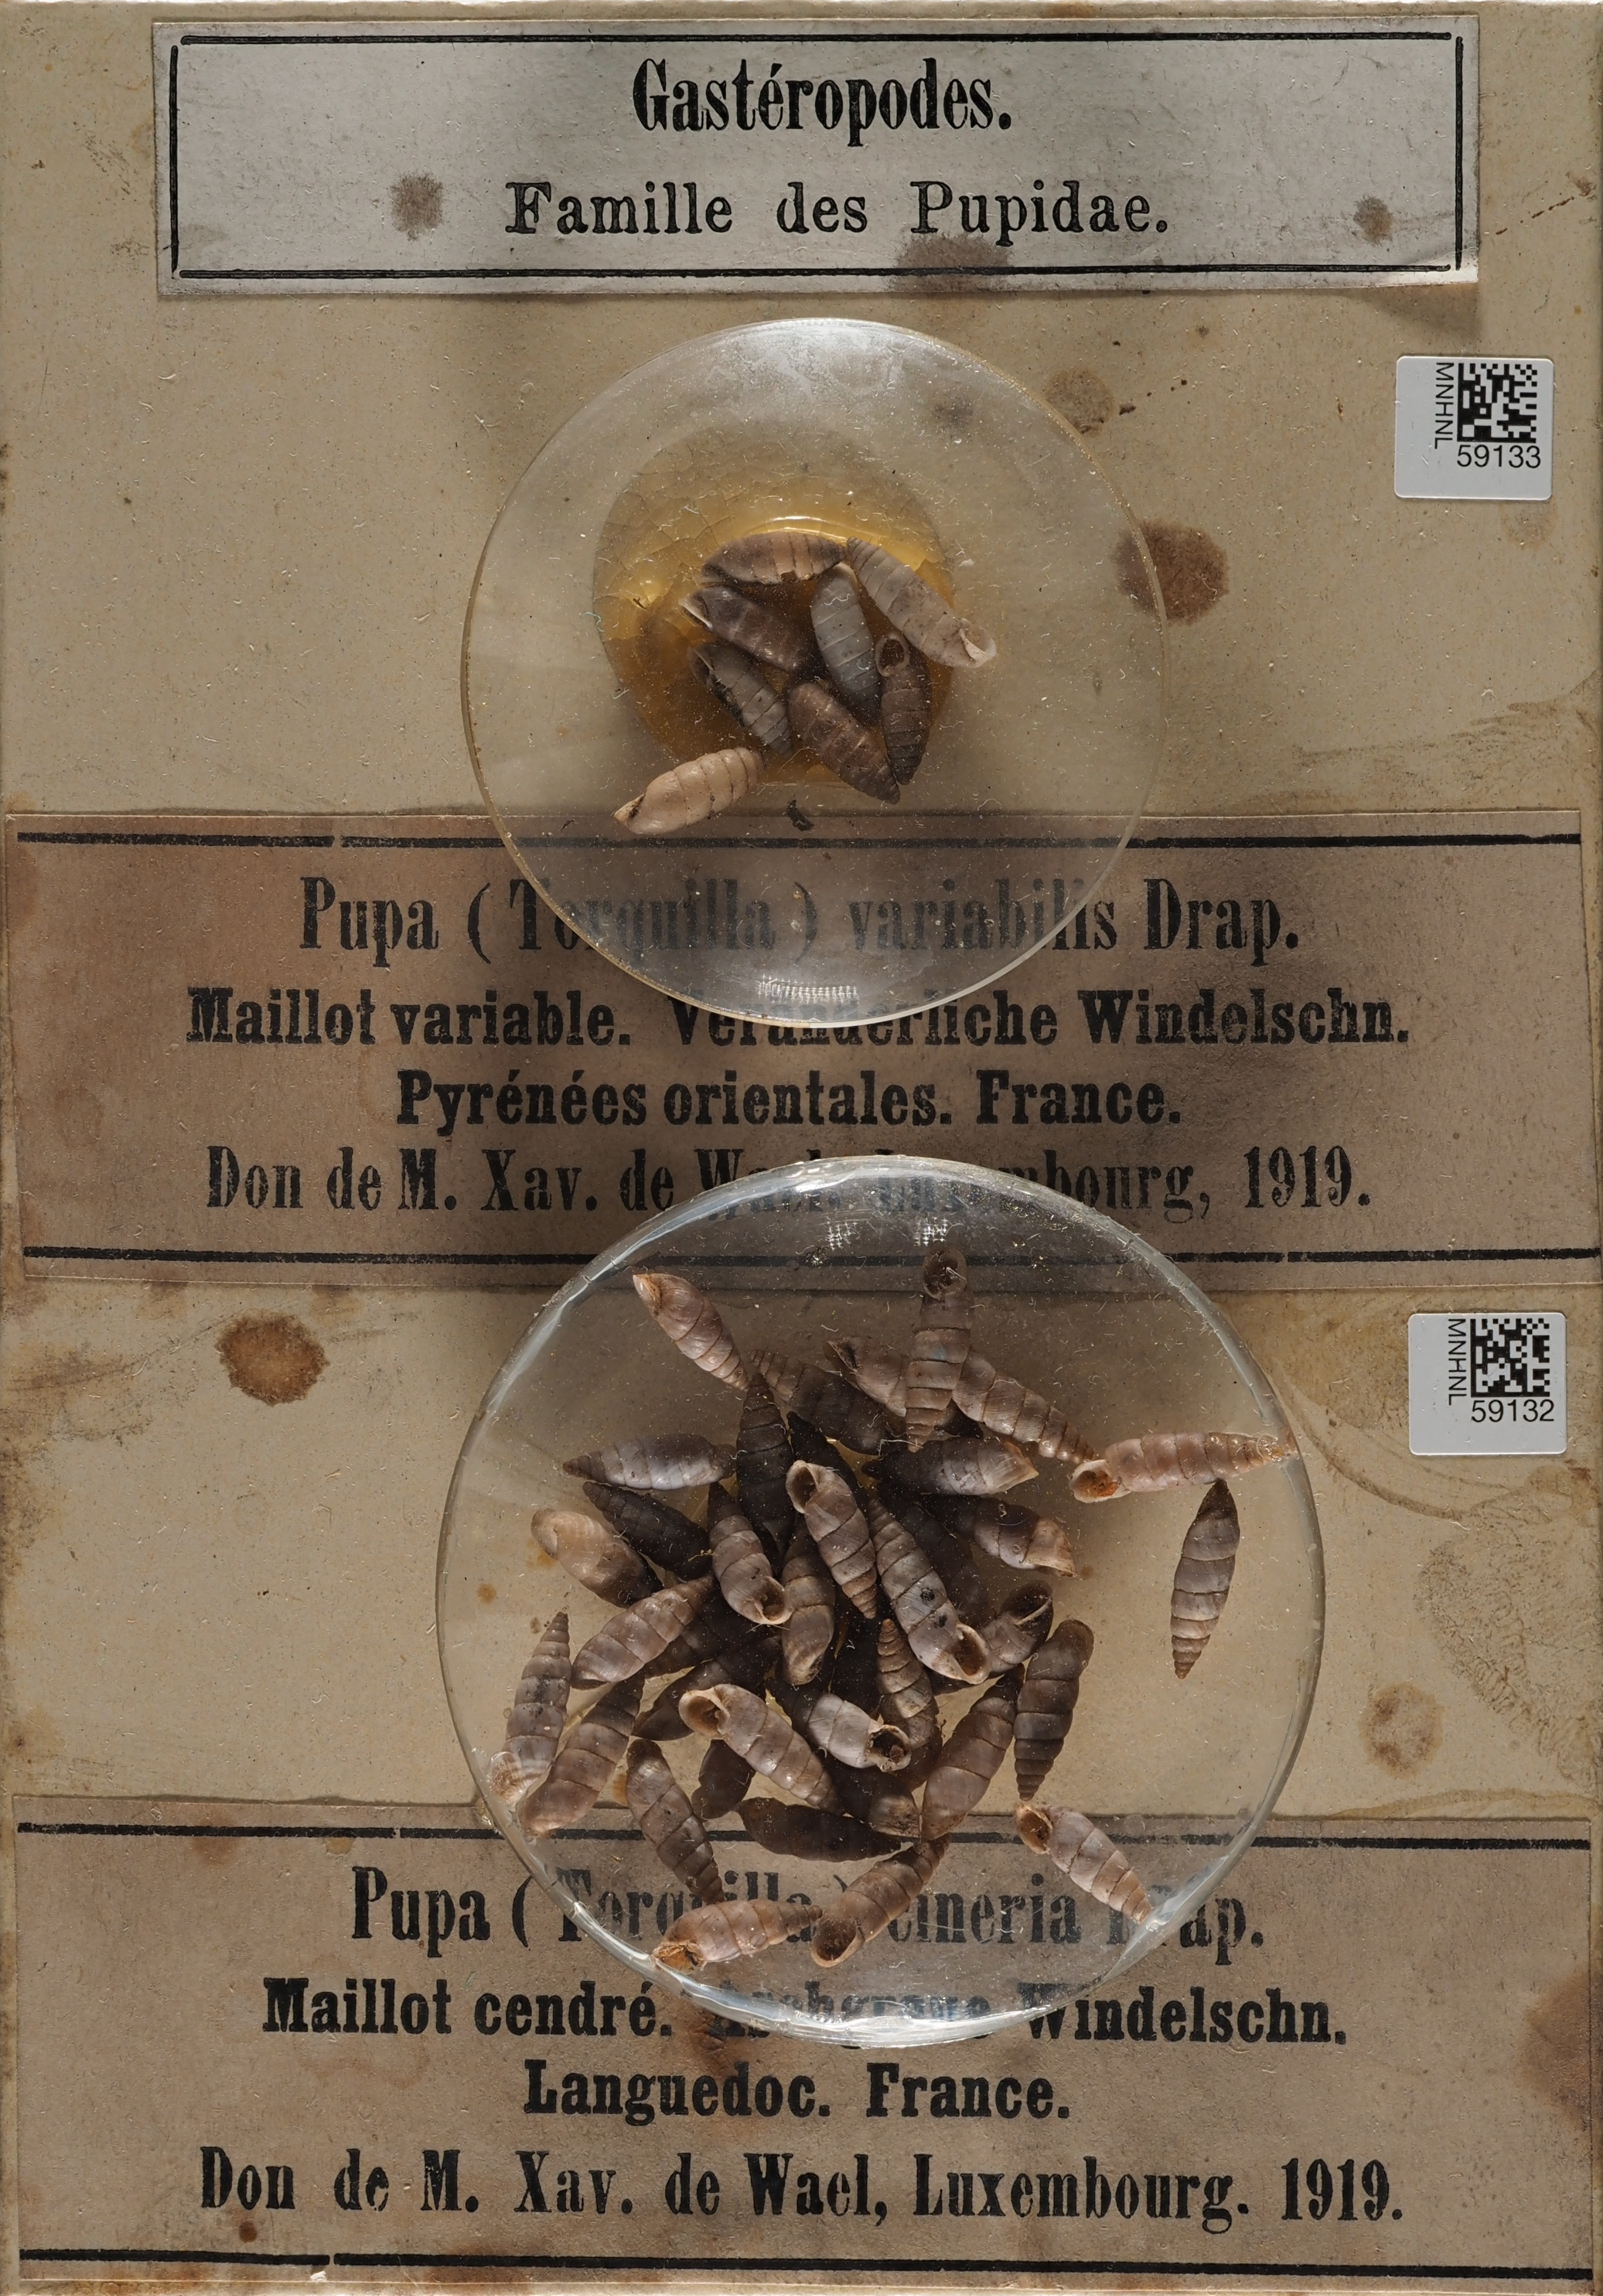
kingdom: Animalia
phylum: Mollusca
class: Gastropoda
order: Stylommatophora
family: Chondrinidae
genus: Solatopupa
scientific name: Solatopupa similis
